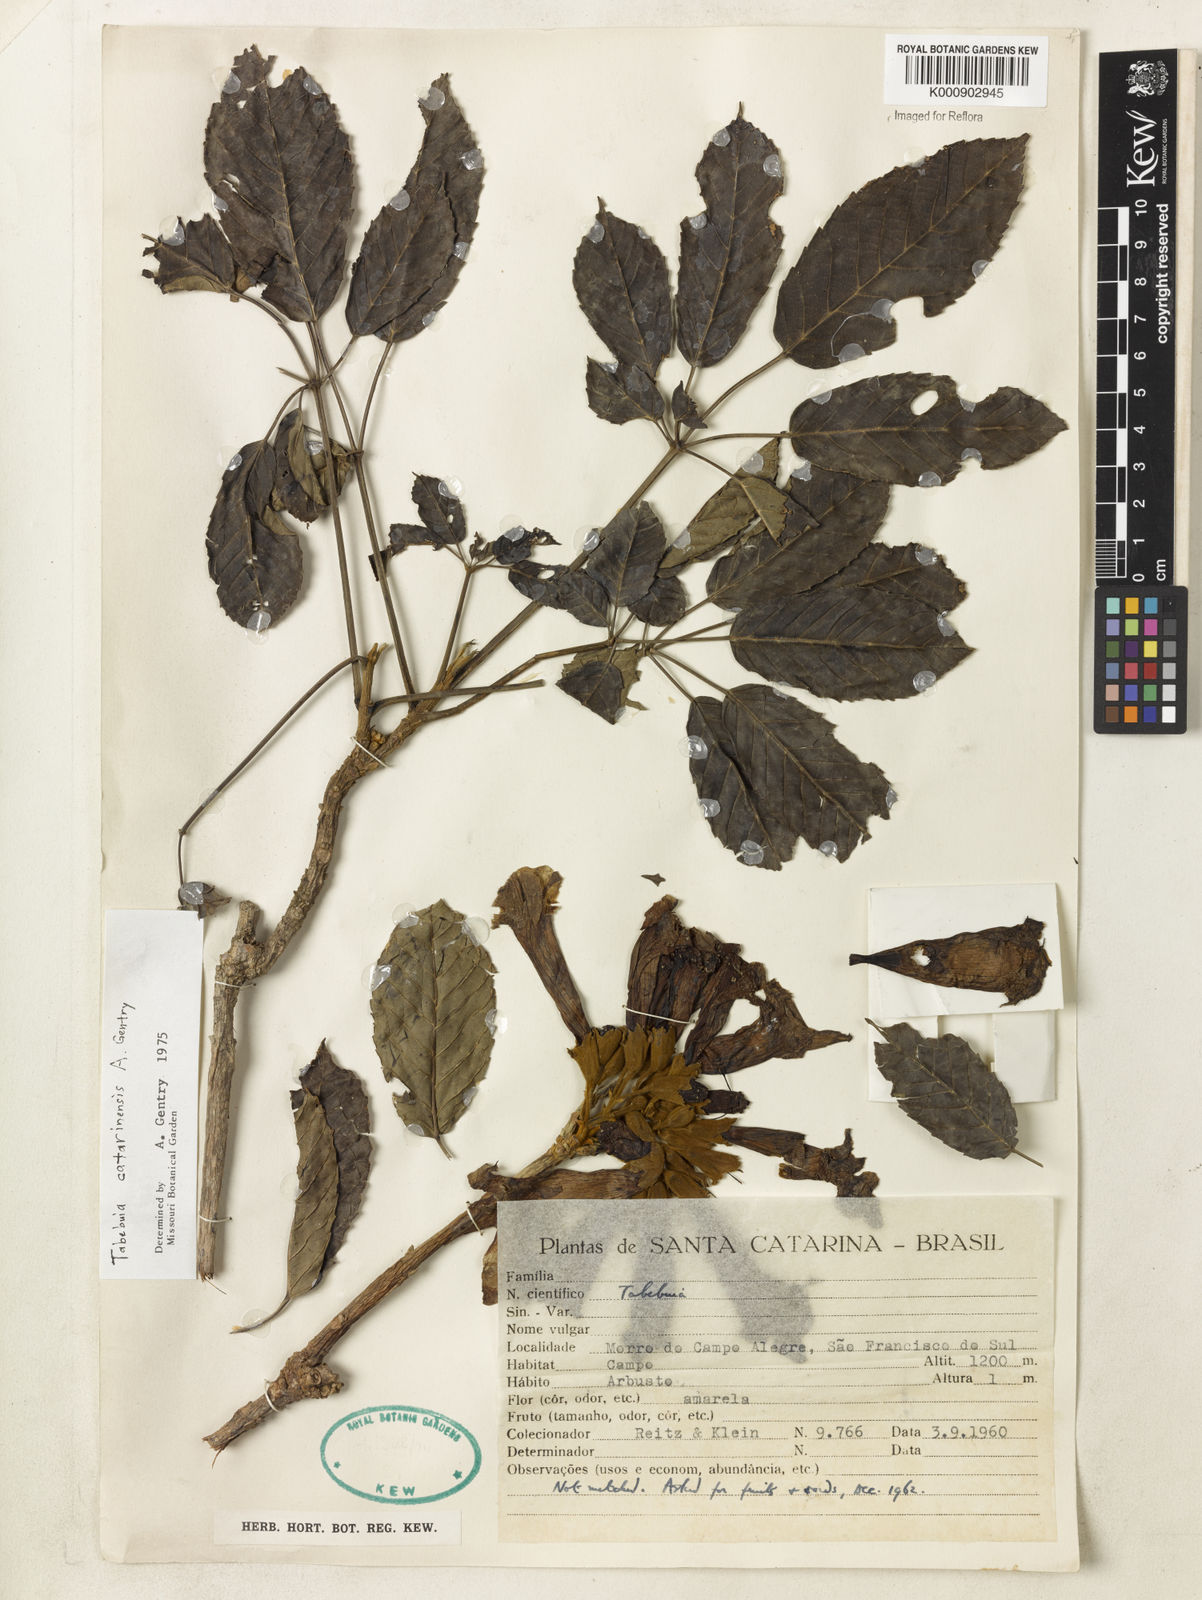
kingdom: Plantae
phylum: Tracheophyta
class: Magnoliopsida
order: Lamiales
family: Bignoniaceae
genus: Handroanthus
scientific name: Handroanthus catarinensis
